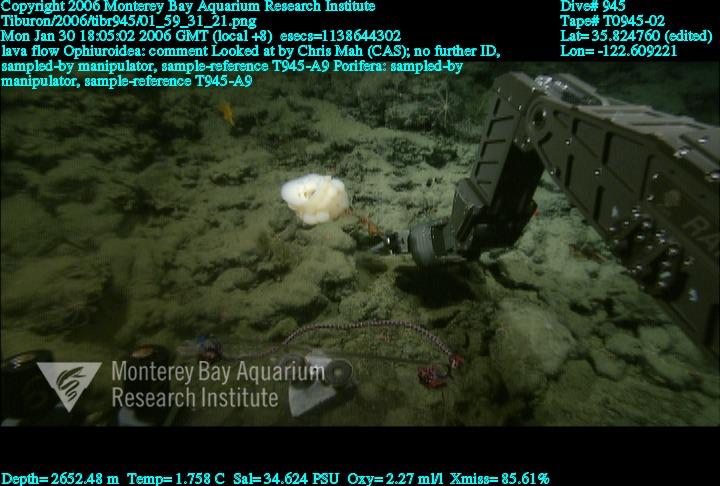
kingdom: Animalia
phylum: Porifera
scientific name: Porifera
